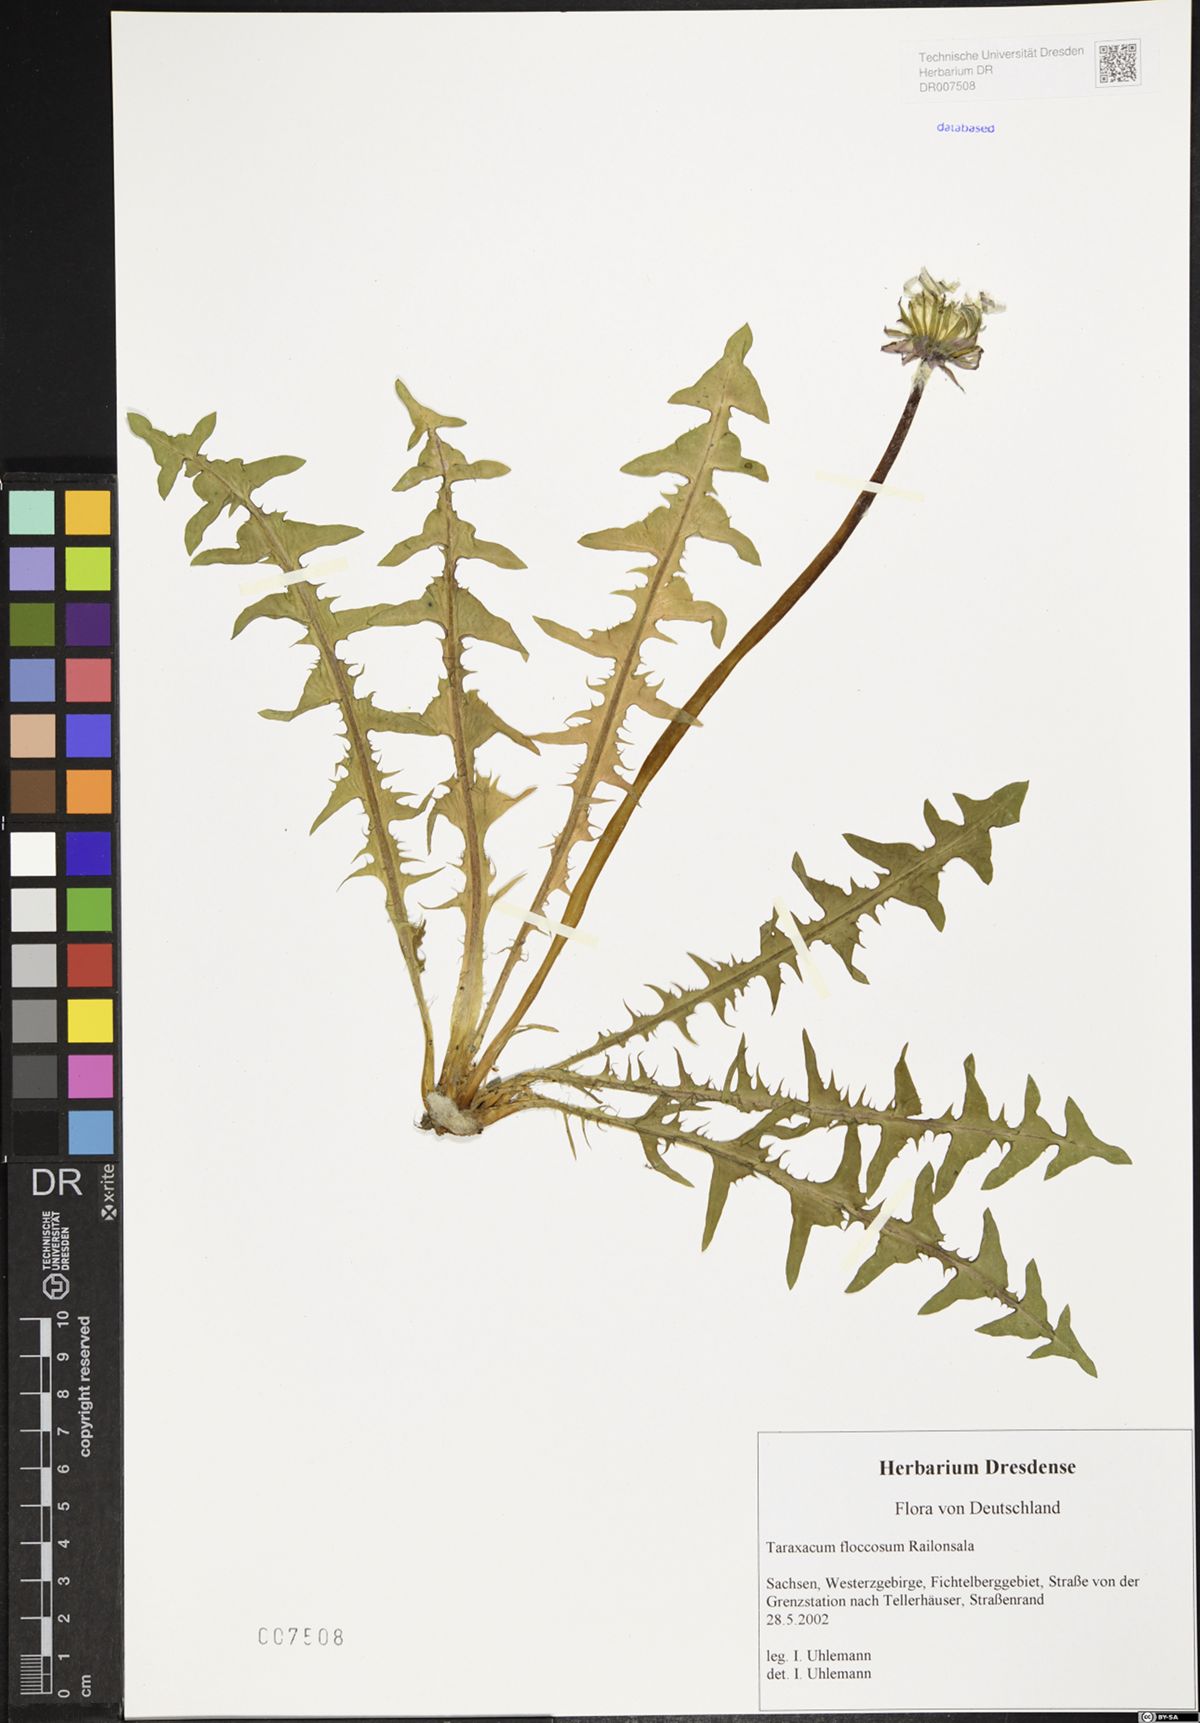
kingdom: Plantae
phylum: Tracheophyta
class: Magnoliopsida
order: Asterales
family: Asteraceae
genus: Taraxacum
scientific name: Taraxacum floccosum
